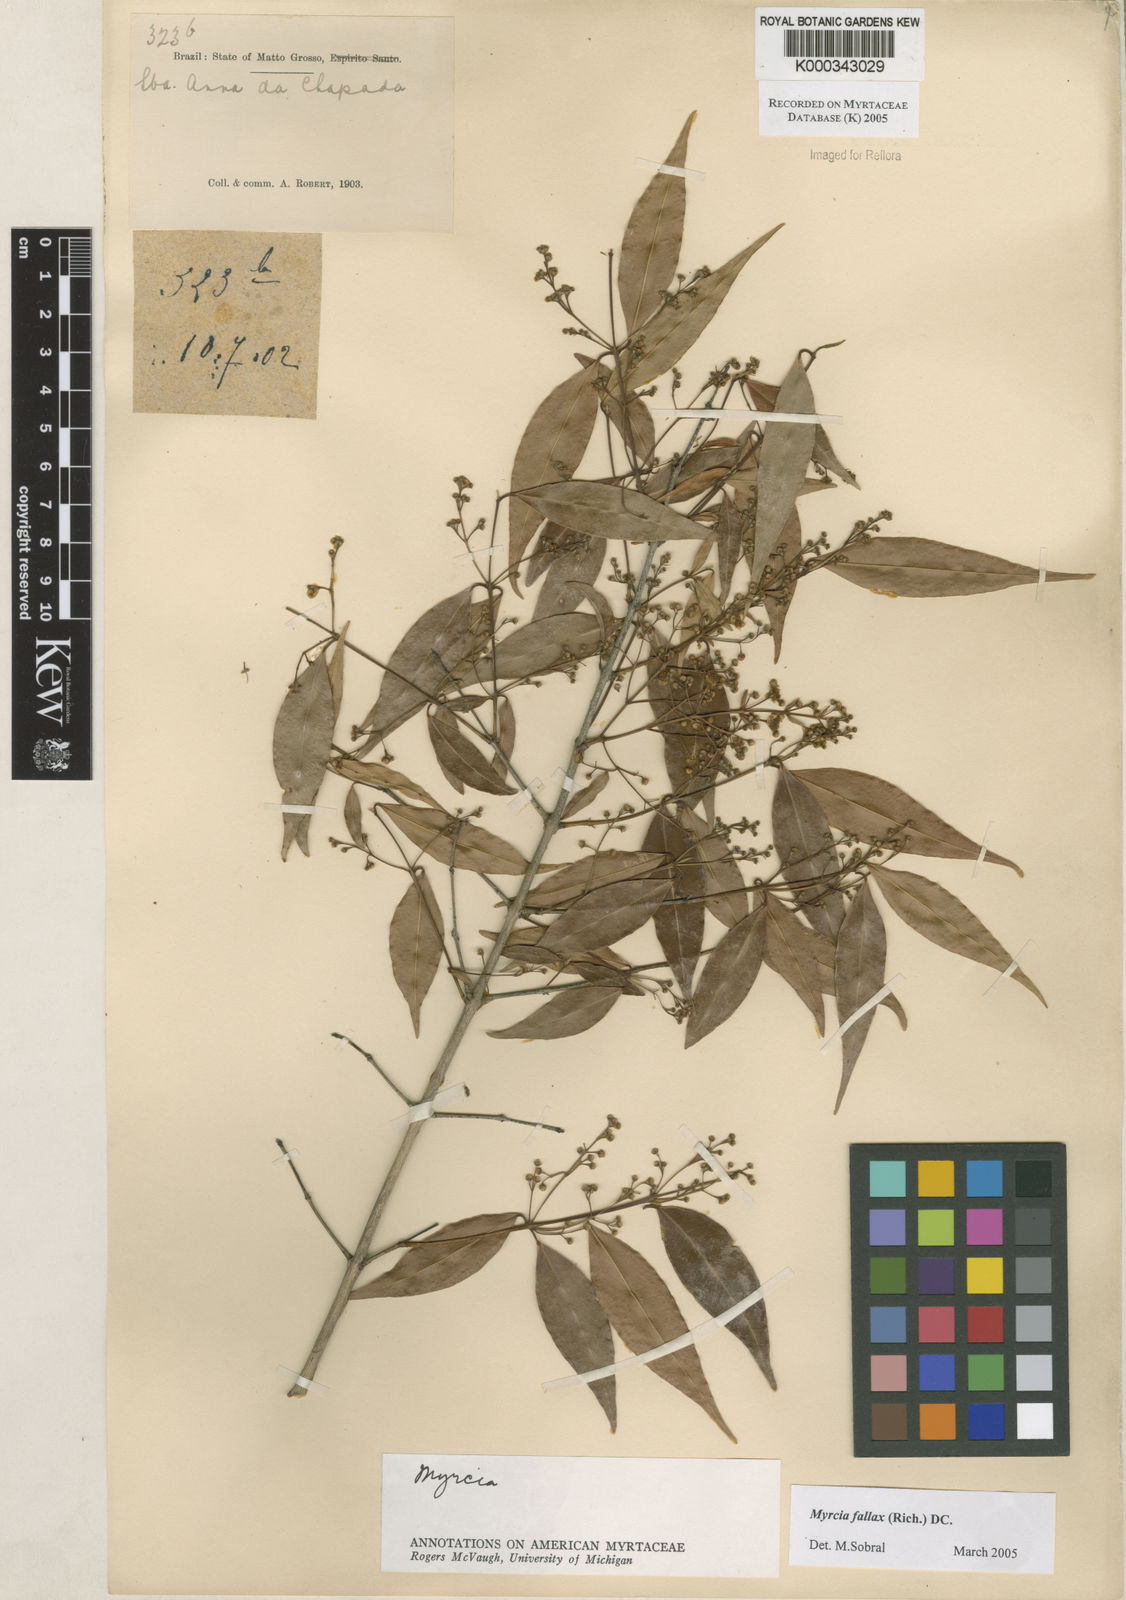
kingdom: Plantae
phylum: Tracheophyta
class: Magnoliopsida
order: Myrtales
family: Myrtaceae
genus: Myrcia
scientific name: Myrcia splendens
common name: Surinam cherry
